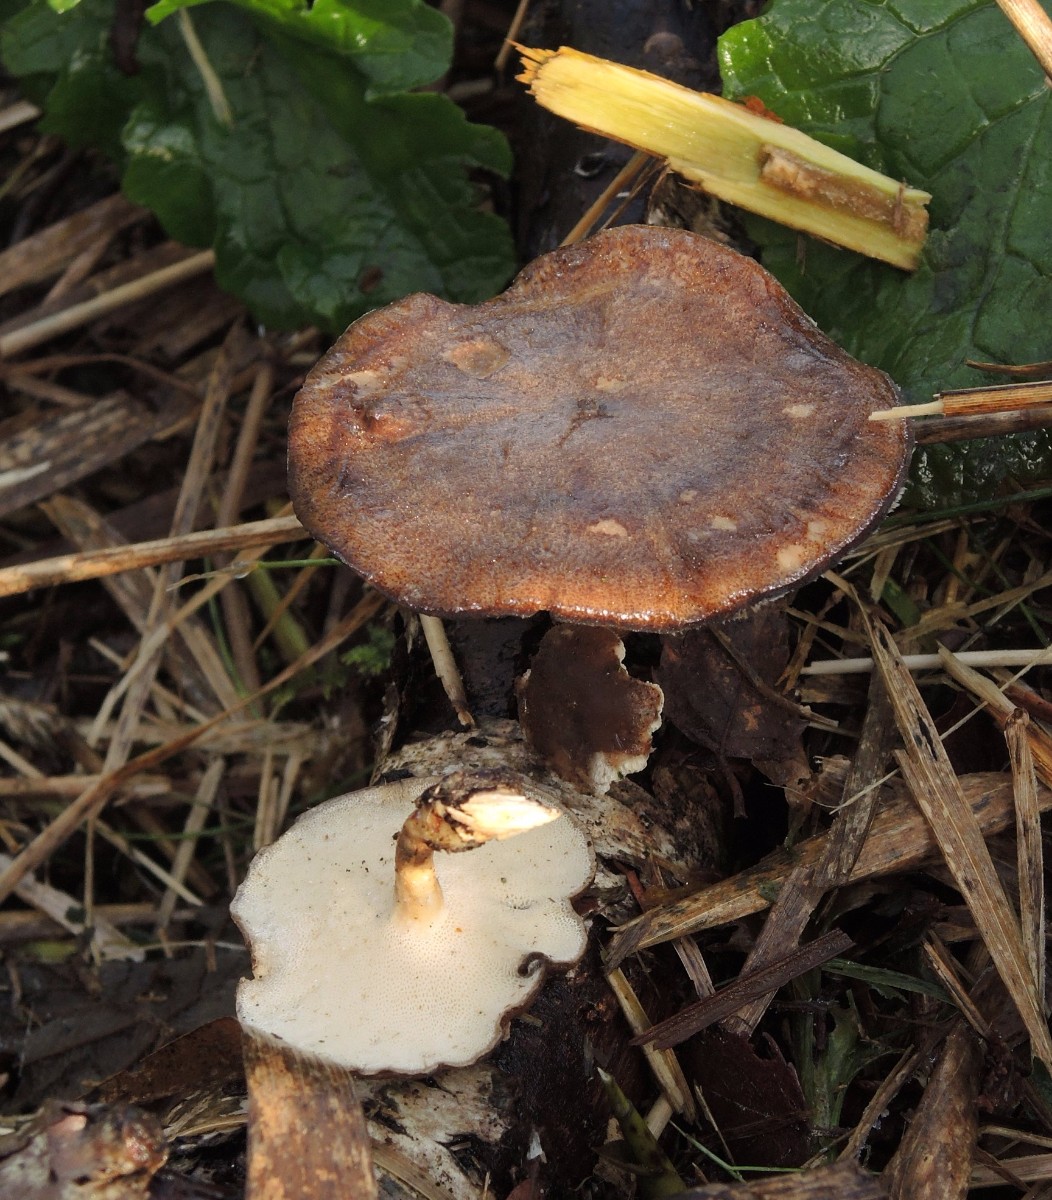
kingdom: Fungi
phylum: Basidiomycota
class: Agaricomycetes
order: Polyporales
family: Polyporaceae
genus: Lentinus
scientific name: Lentinus brumalis
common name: vinter-stilkporesvamp
